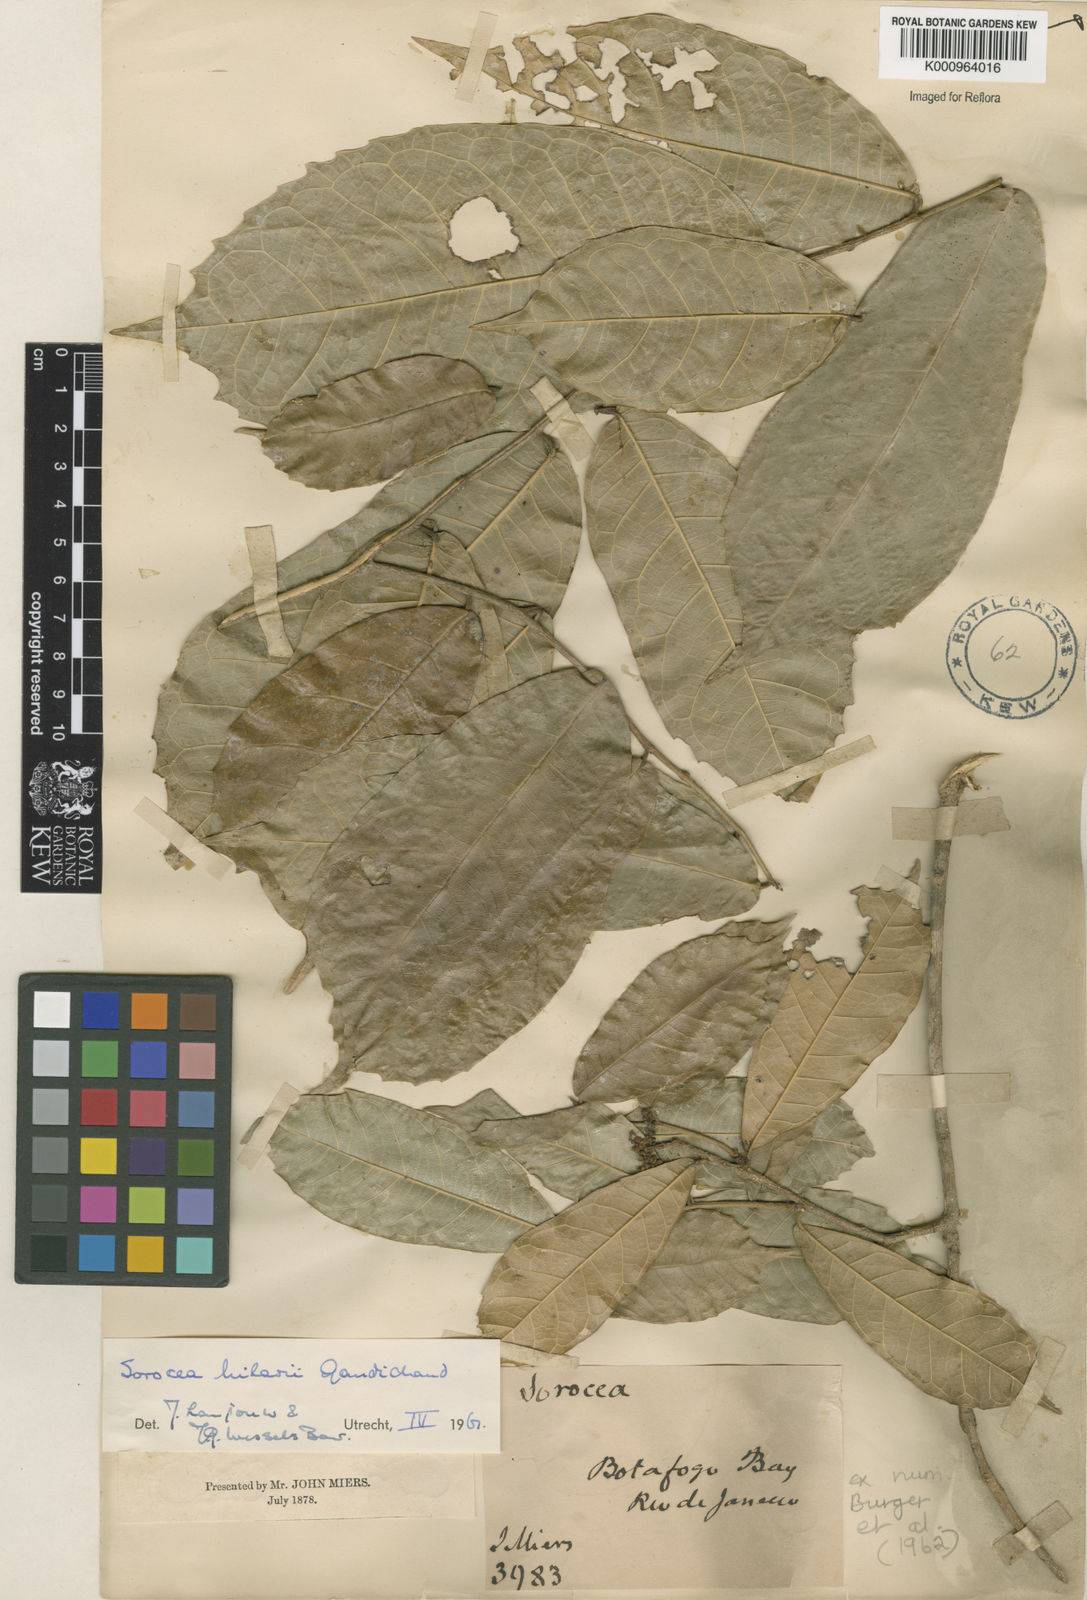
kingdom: Plantae
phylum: Tracheophyta
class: Magnoliopsida
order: Rosales
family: Moraceae
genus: Sorocea
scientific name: Sorocea hilarii
